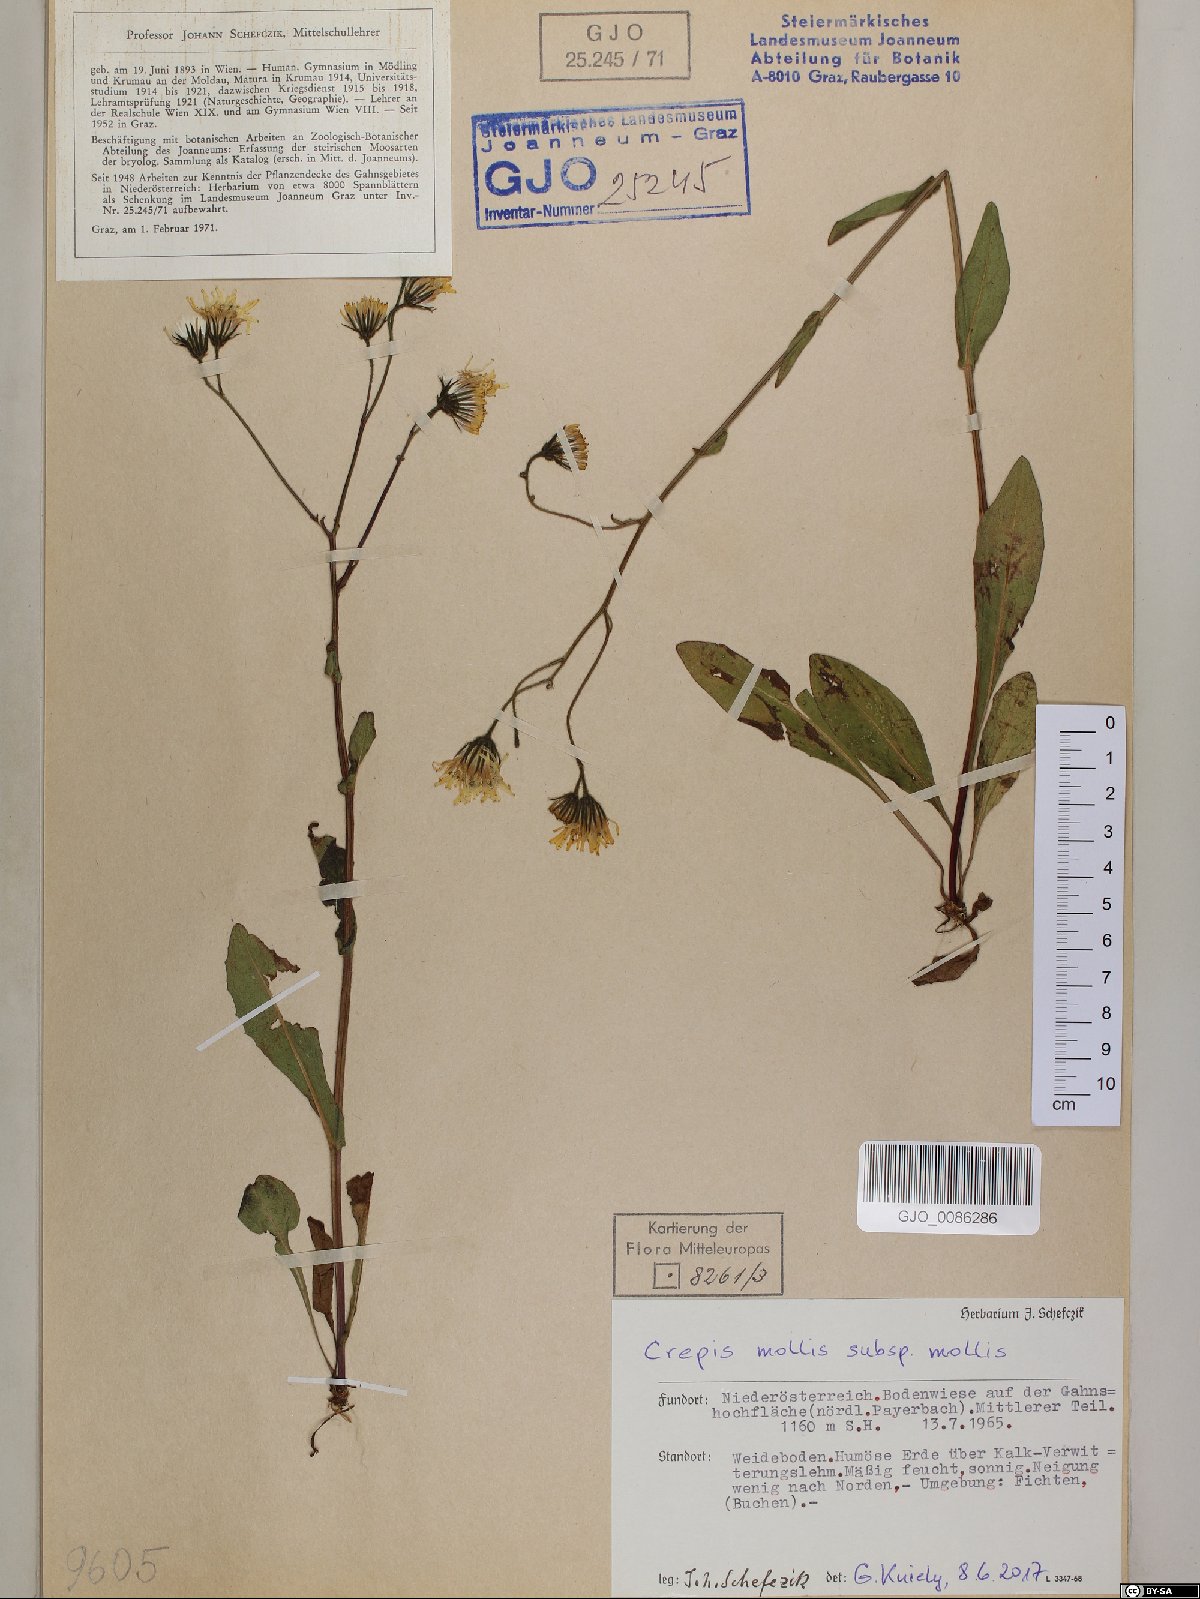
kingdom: Plantae
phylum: Tracheophyta
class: Magnoliopsida
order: Asterales
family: Asteraceae
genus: Crepis
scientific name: Crepis mollis
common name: Northern hawk's-beard
